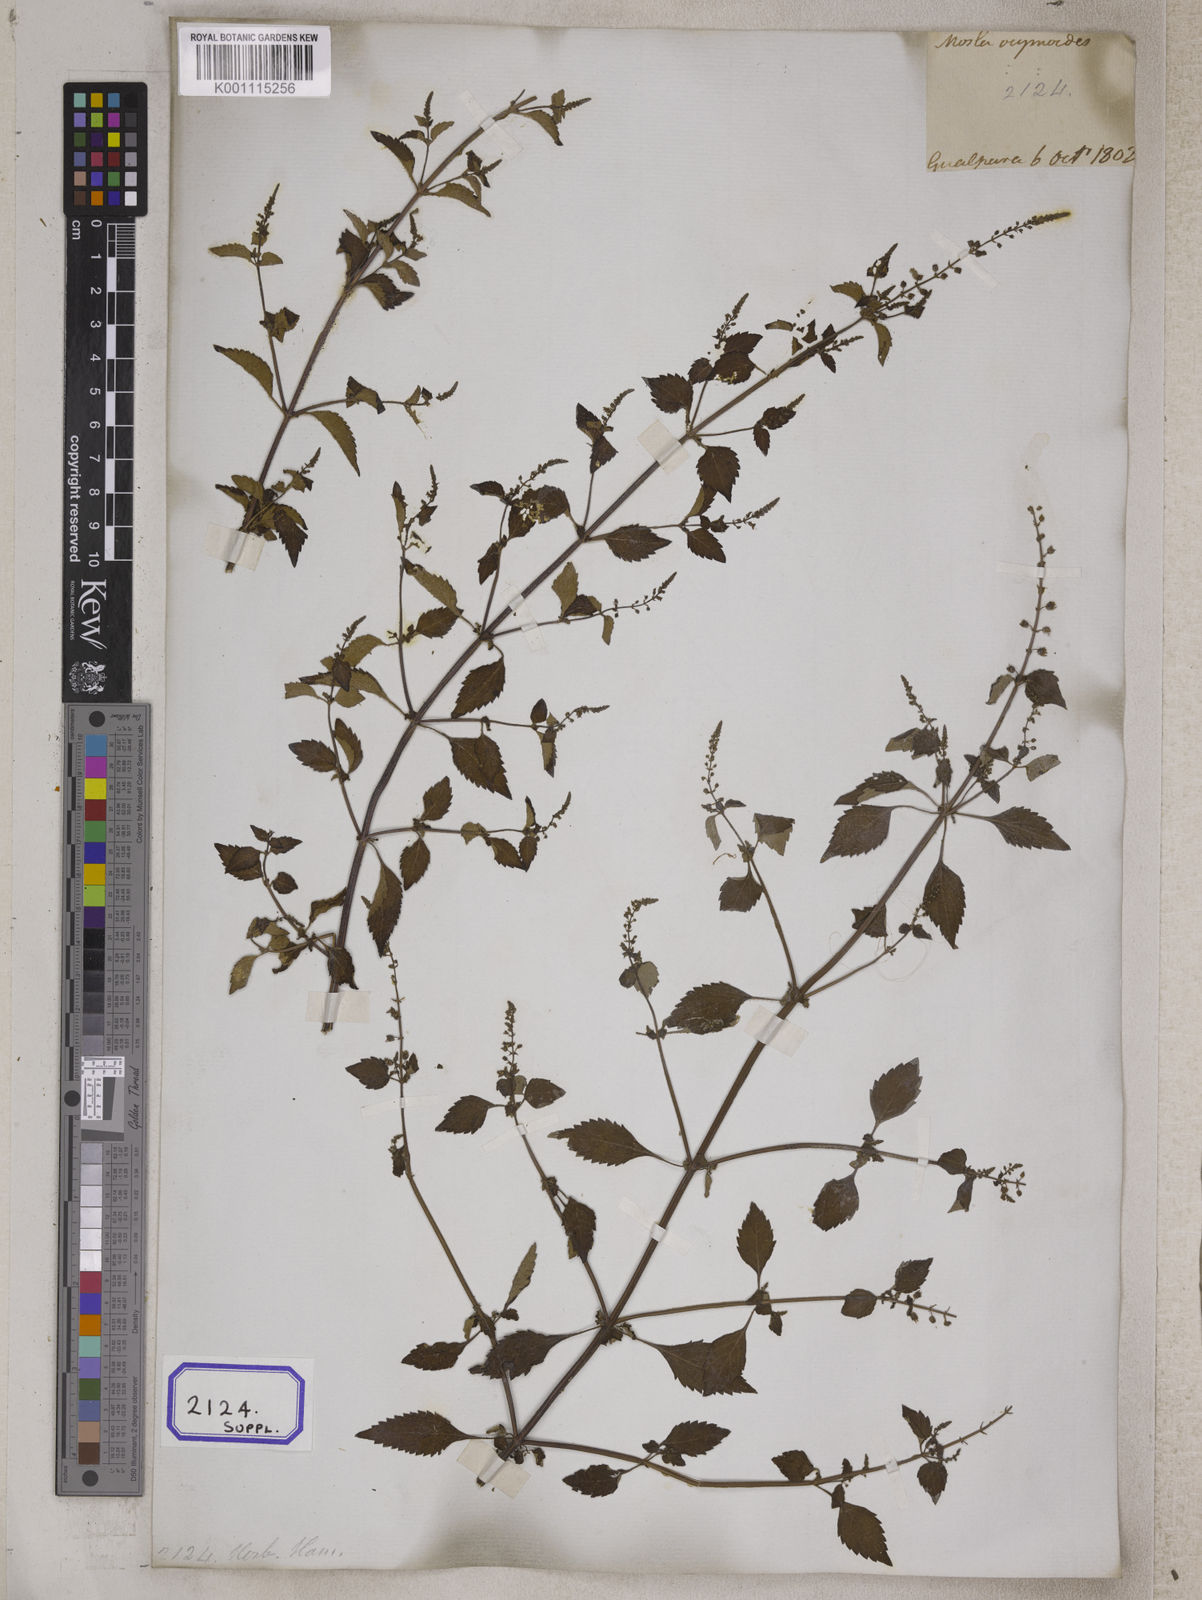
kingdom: Plantae
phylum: Tracheophyta
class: Magnoliopsida
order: Lamiales
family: Lamiaceae
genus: Mosla
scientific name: Mosla dianthera
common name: Miniature beefsteakplant
